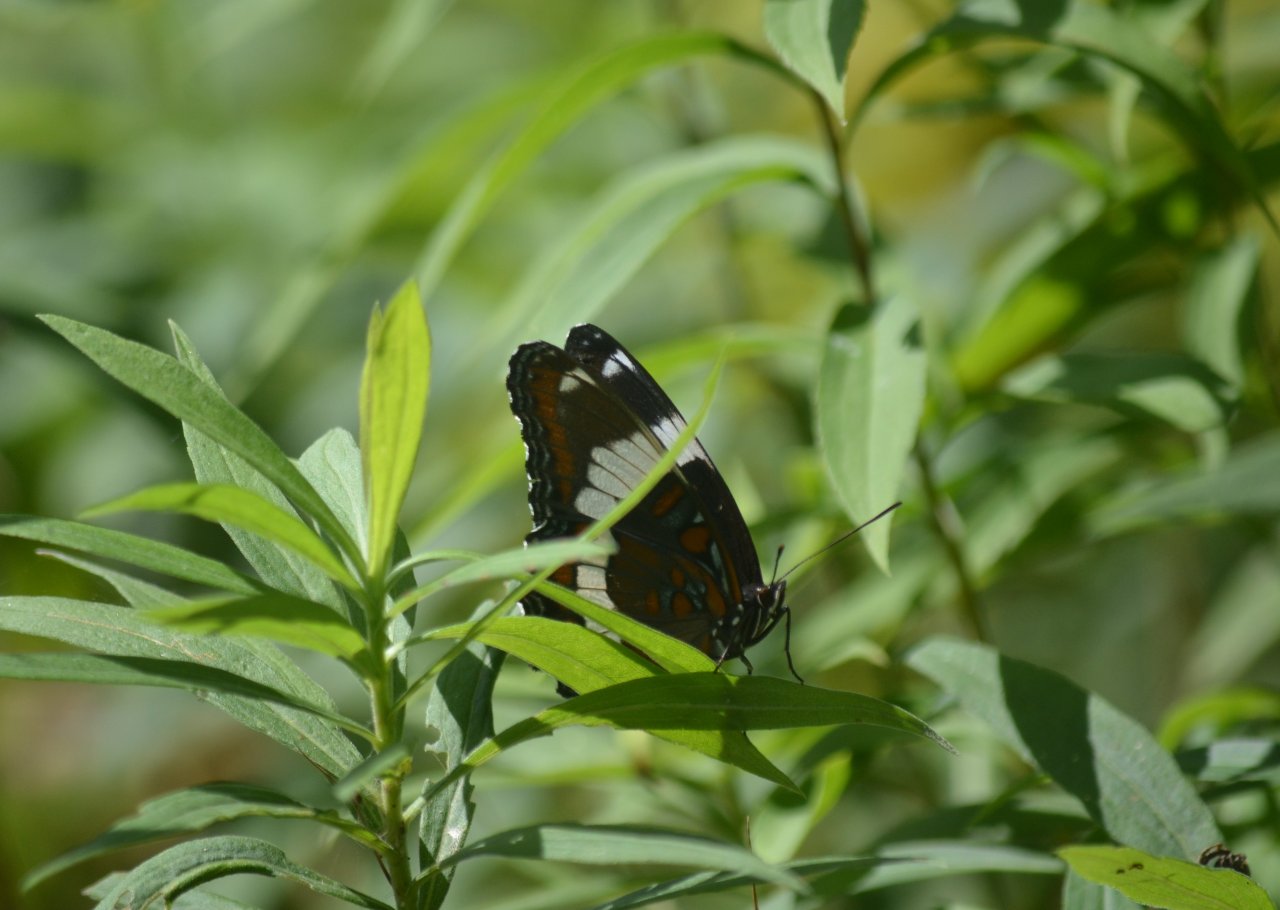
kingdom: Animalia
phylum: Arthropoda
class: Insecta
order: Lepidoptera
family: Nymphalidae
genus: Limenitis
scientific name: Limenitis arthemis
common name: Red-spotted Admiral
